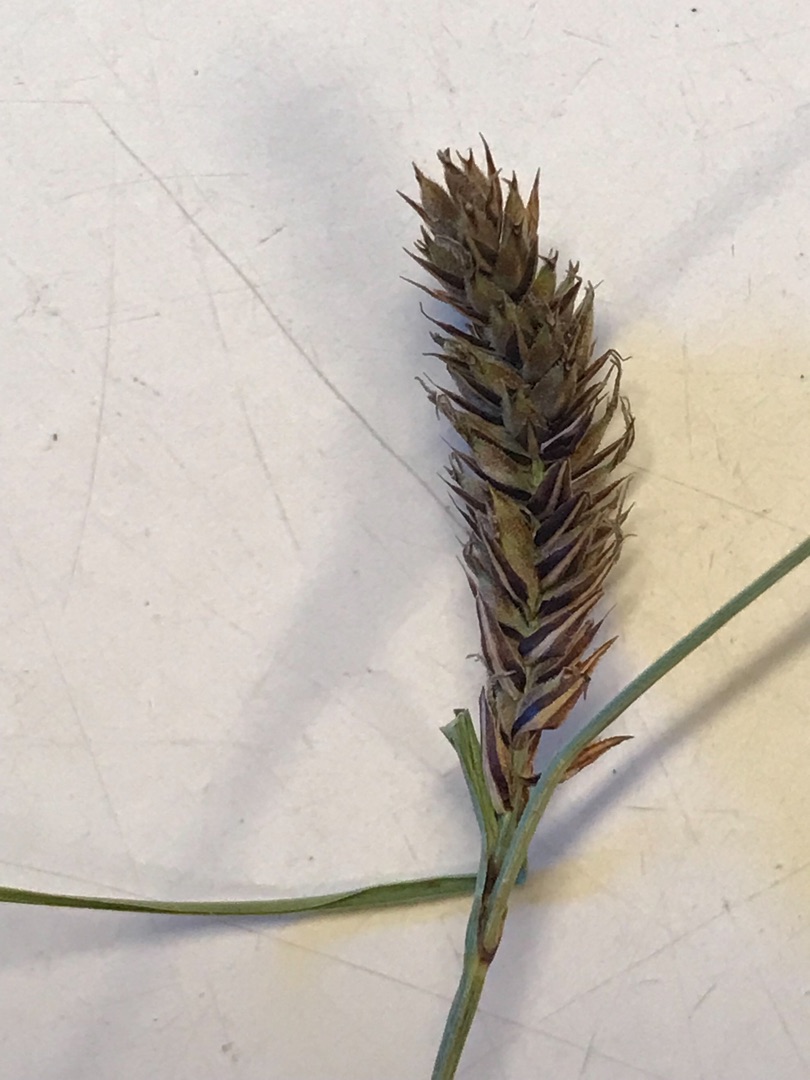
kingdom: Plantae
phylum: Tracheophyta
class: Liliopsida
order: Poales
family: Cyperaceae
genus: Carex
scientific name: Carex lasiocarpa
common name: Tråd-star
